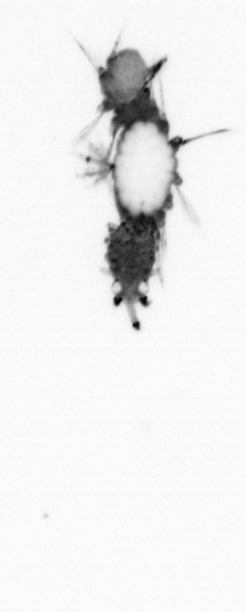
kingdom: Animalia
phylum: Annelida
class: Polychaeta
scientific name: Polychaeta
